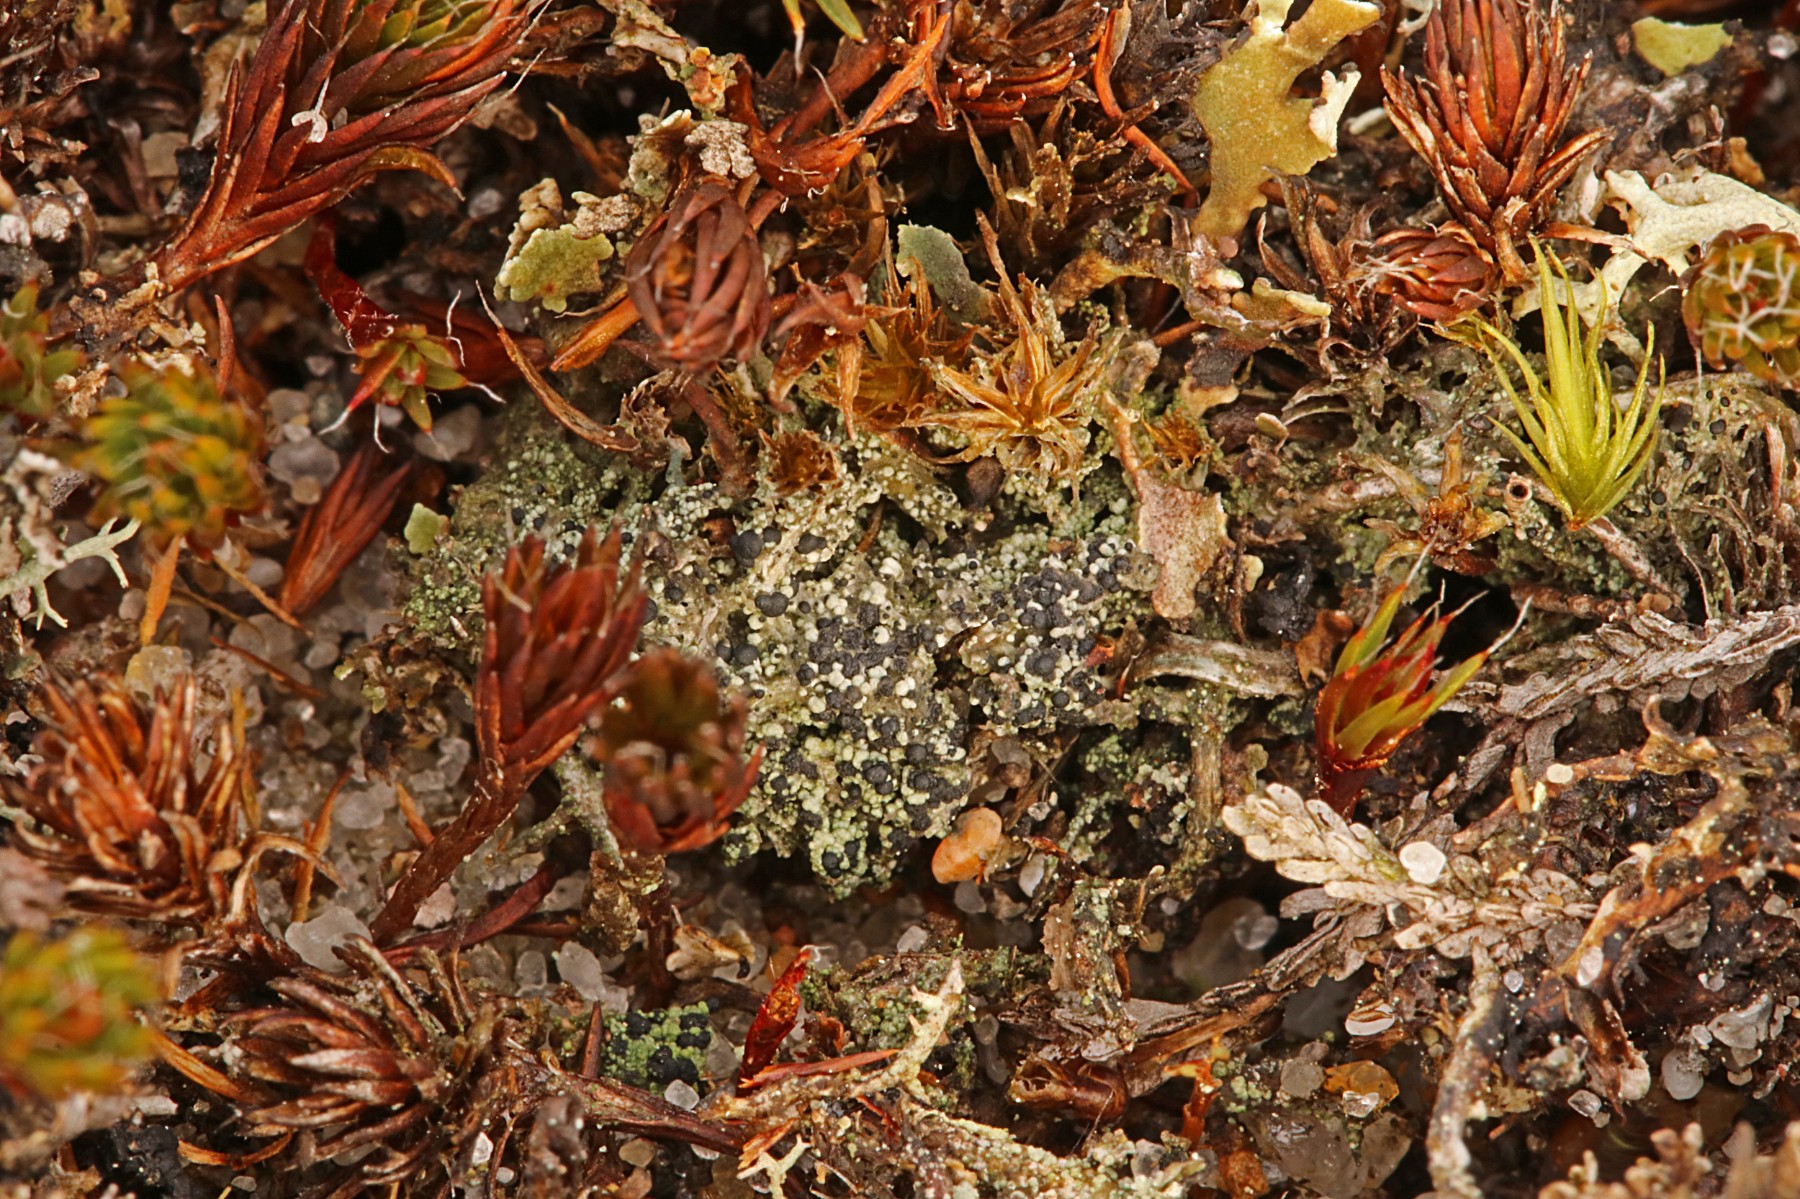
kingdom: Fungi
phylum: Ascomycota
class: Lecanoromycetes
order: Lecanorales
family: Byssolomataceae
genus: Micarea
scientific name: Micarea lignaria
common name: tørve-knaplav
